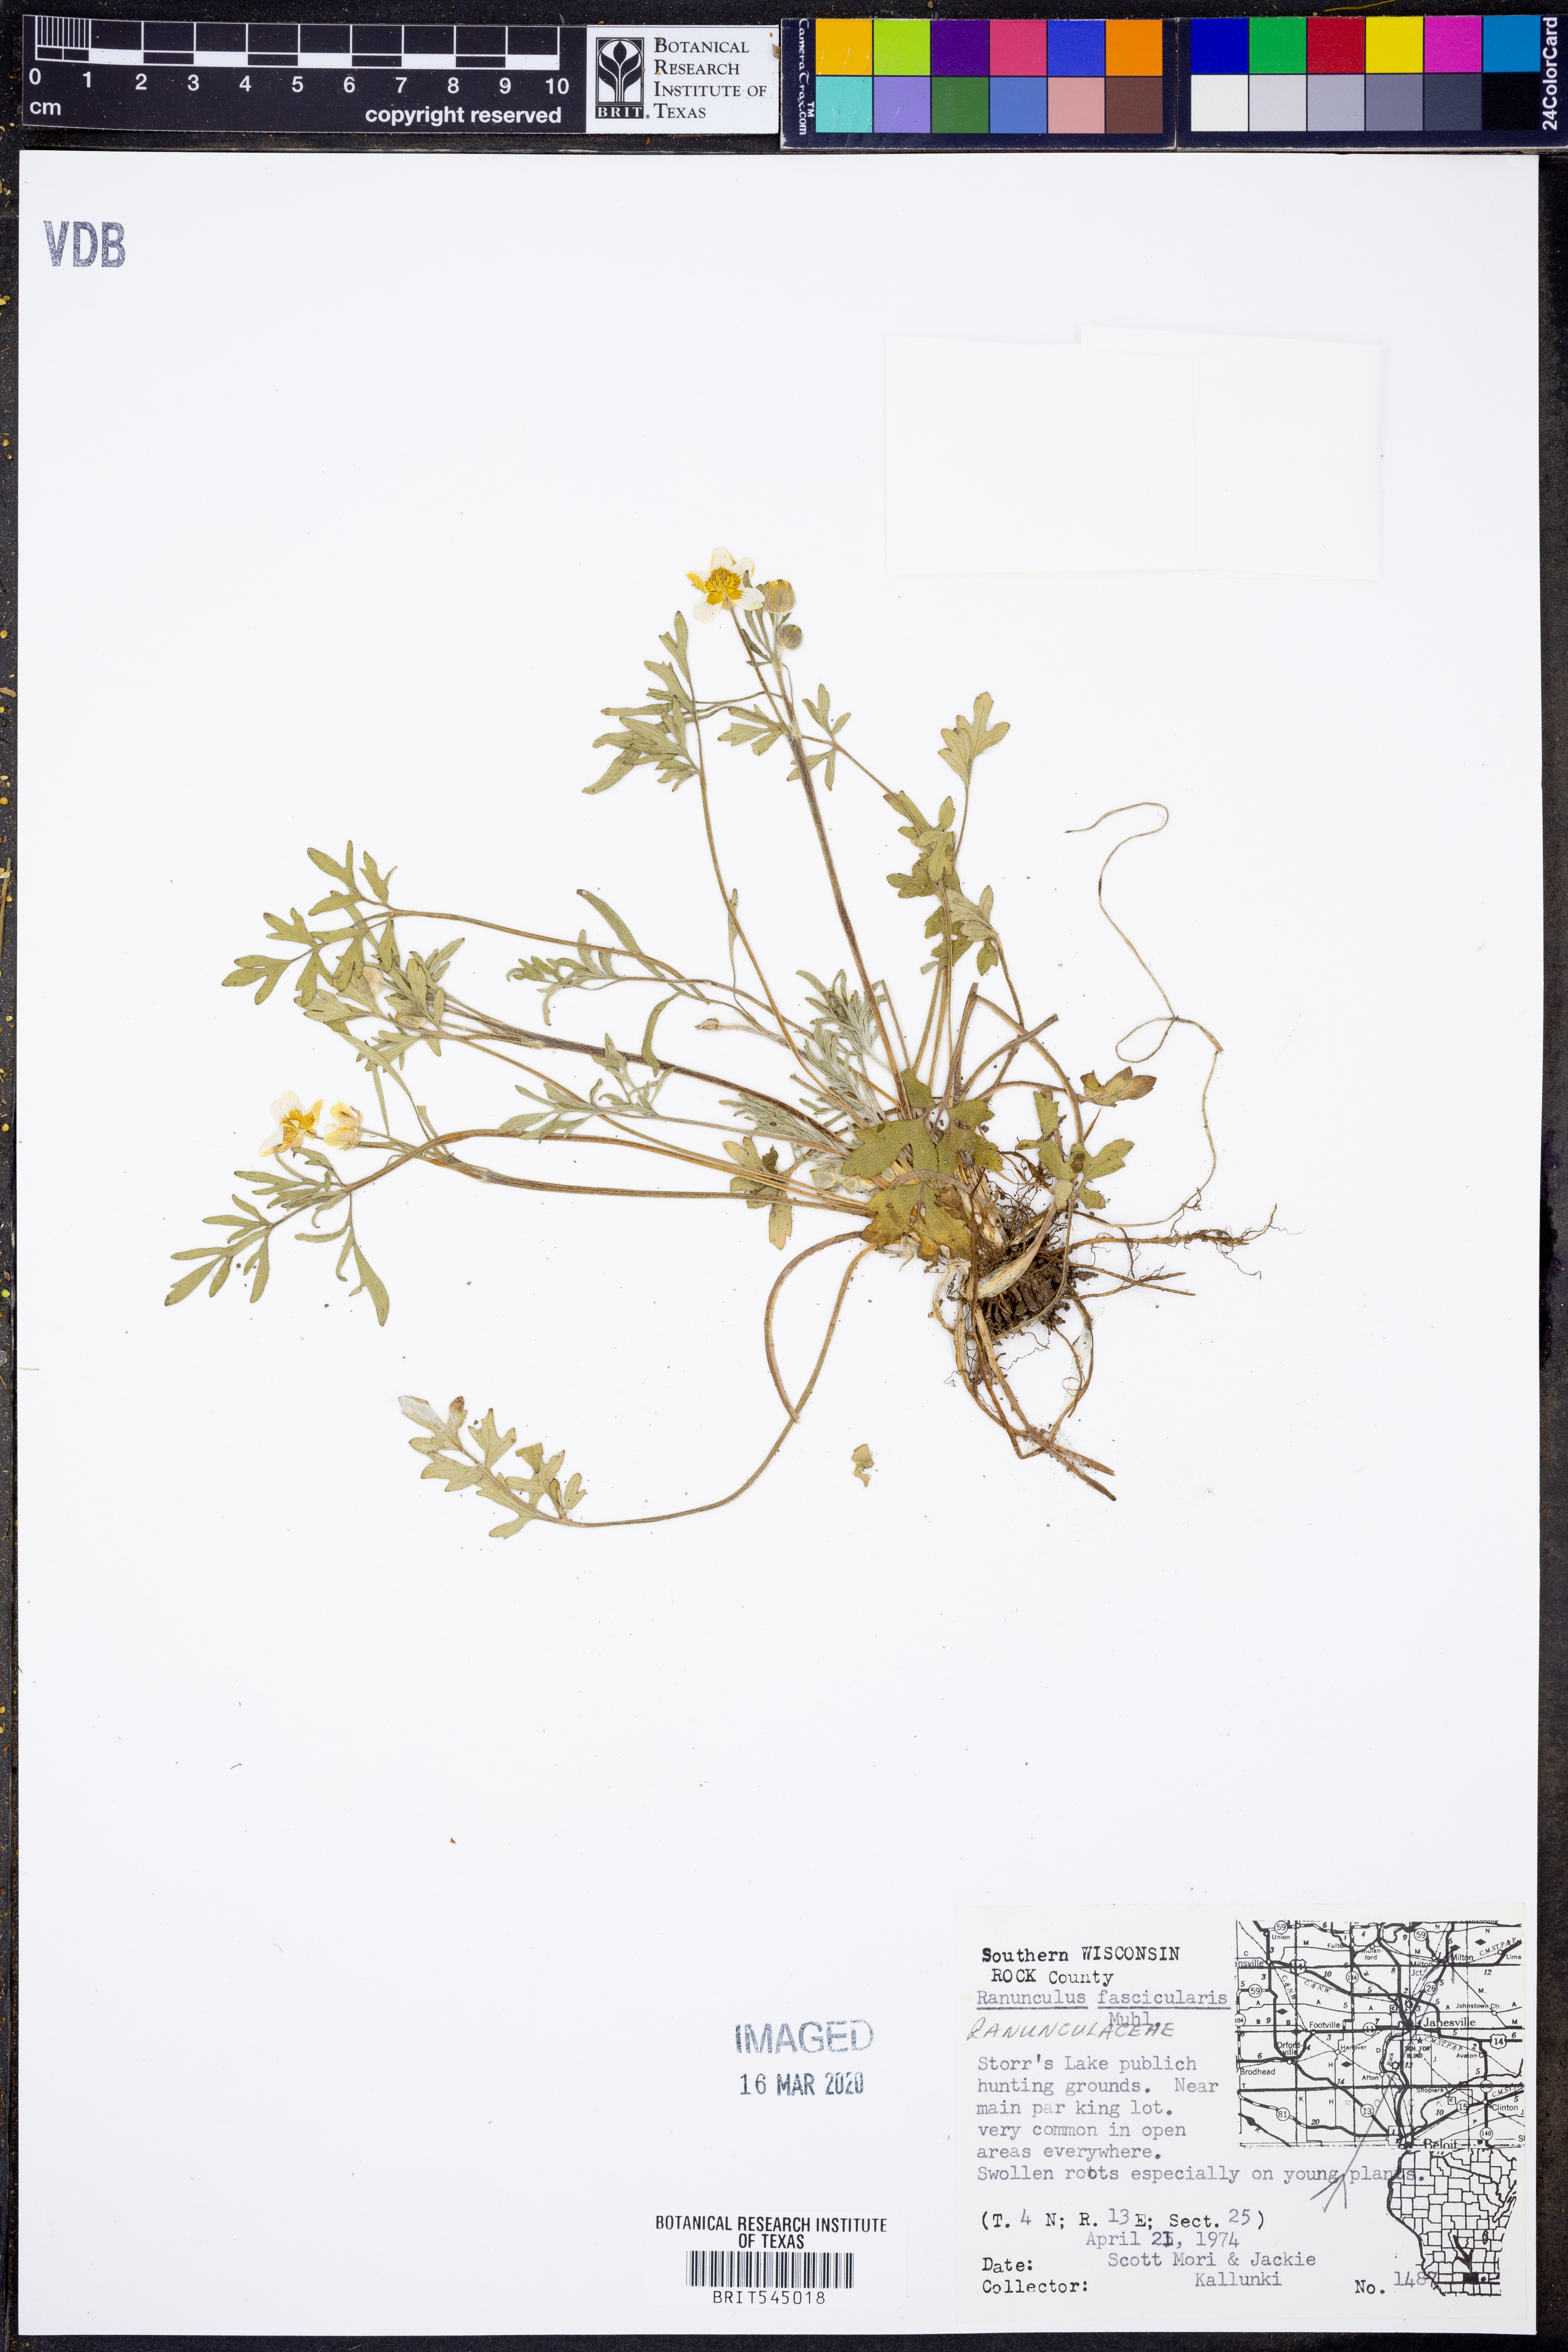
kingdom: Plantae
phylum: Tracheophyta
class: Magnoliopsida
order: Ranunculales
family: Ranunculaceae
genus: Ranunculus
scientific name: Ranunculus fascicularis
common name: Early buttercup
